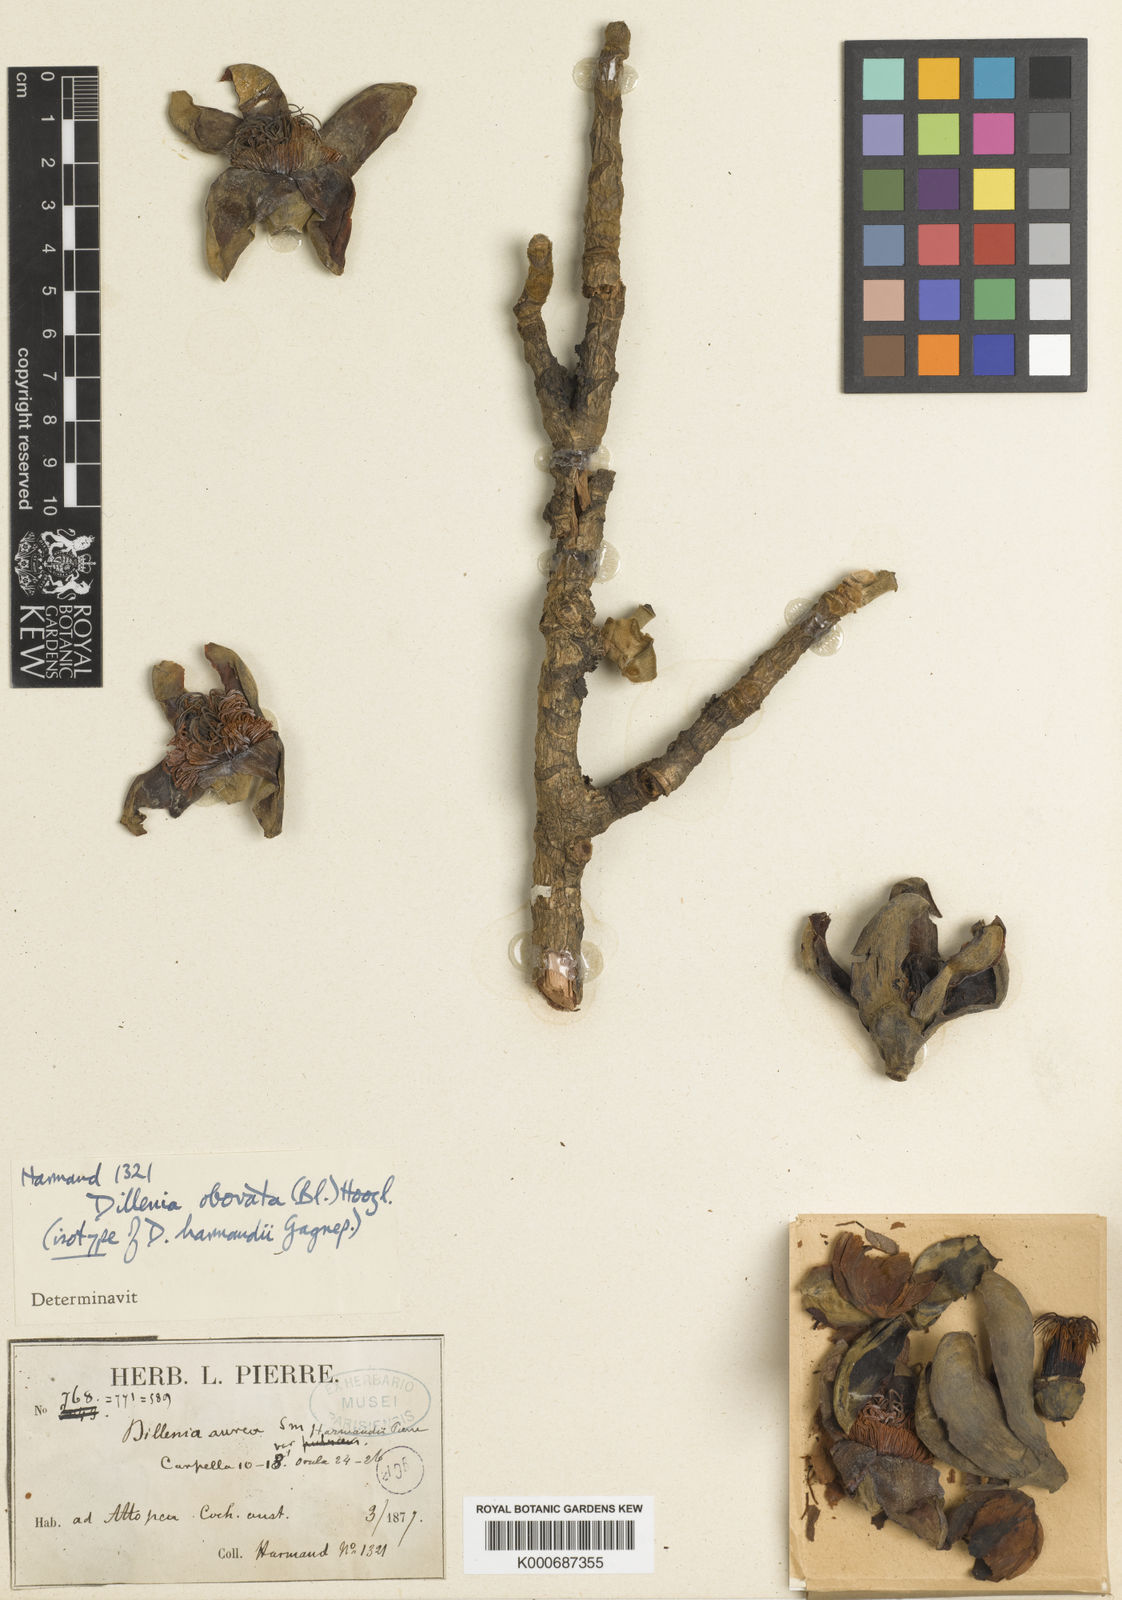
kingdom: Plantae
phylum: Tracheophyta
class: Magnoliopsida
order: Dilleniales
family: Dilleniaceae
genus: Dillenia
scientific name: Dillenia obovata
